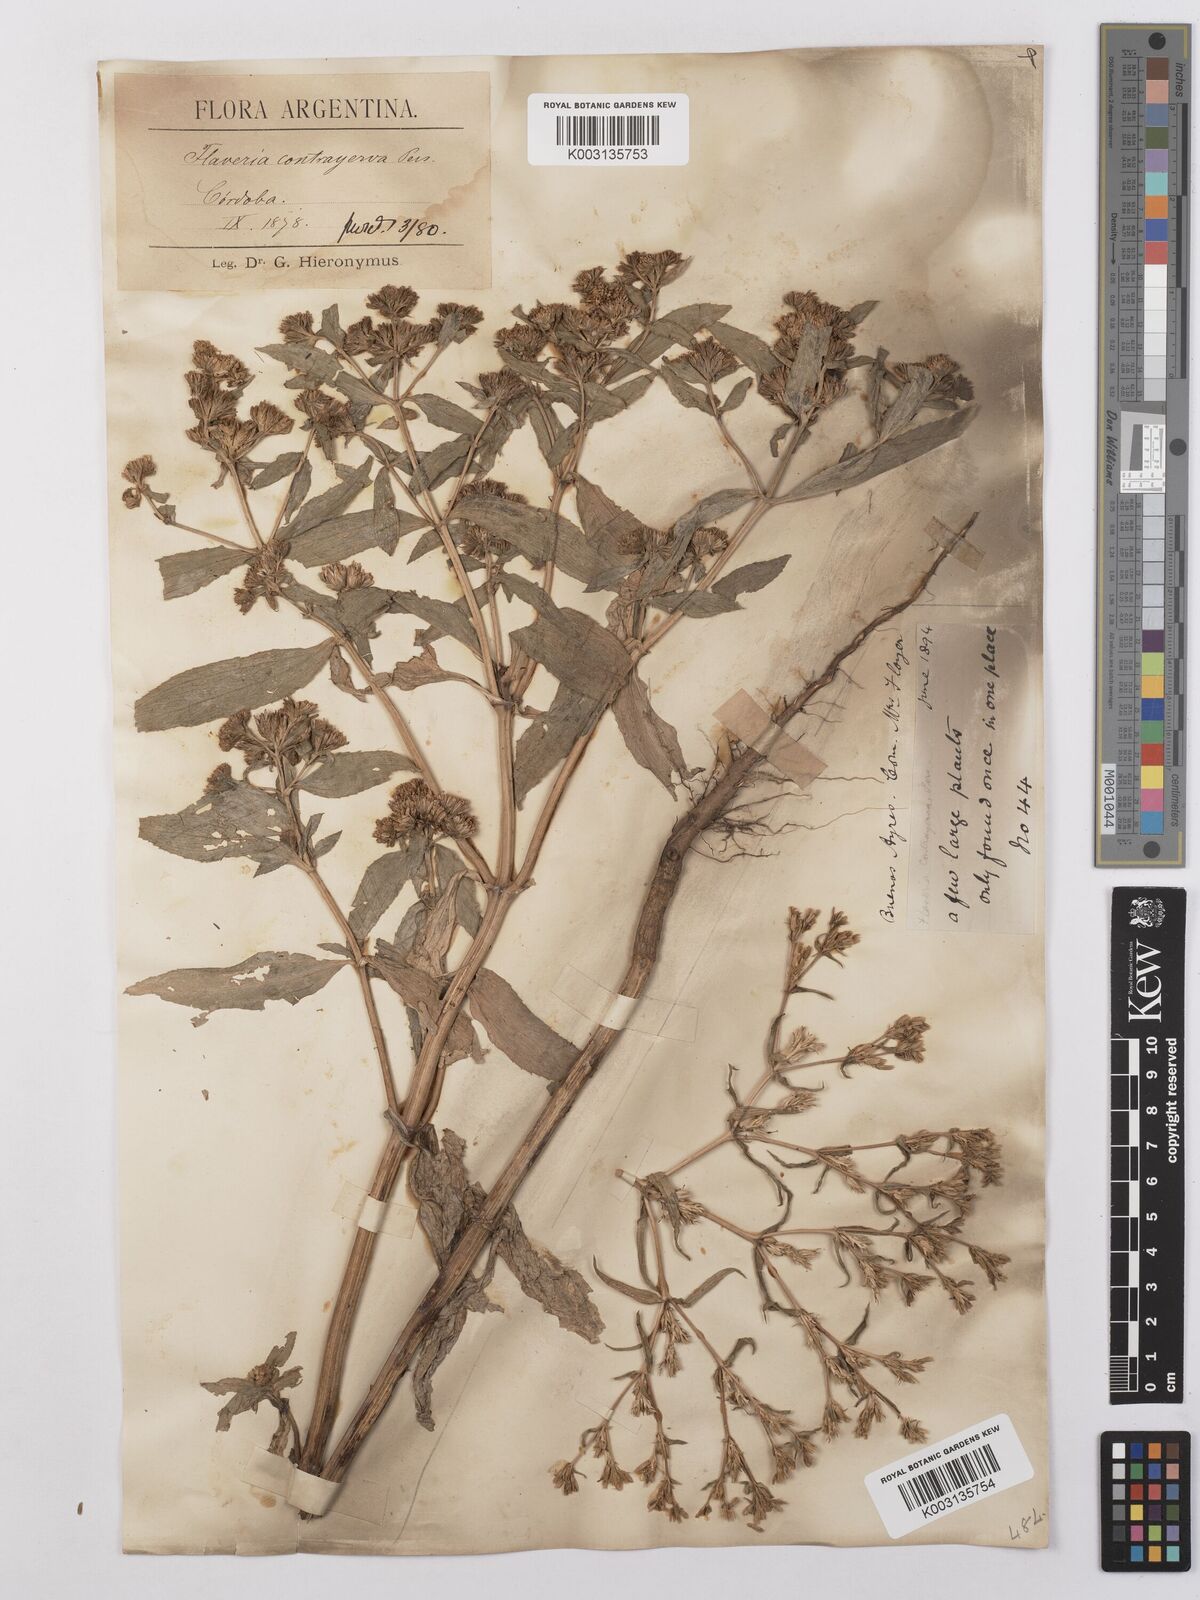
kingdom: Plantae
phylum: Tracheophyta
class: Magnoliopsida
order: Asterales
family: Asteraceae
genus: Flaveria
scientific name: Flaveria bidentis
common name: Coastal plain yellowtops
